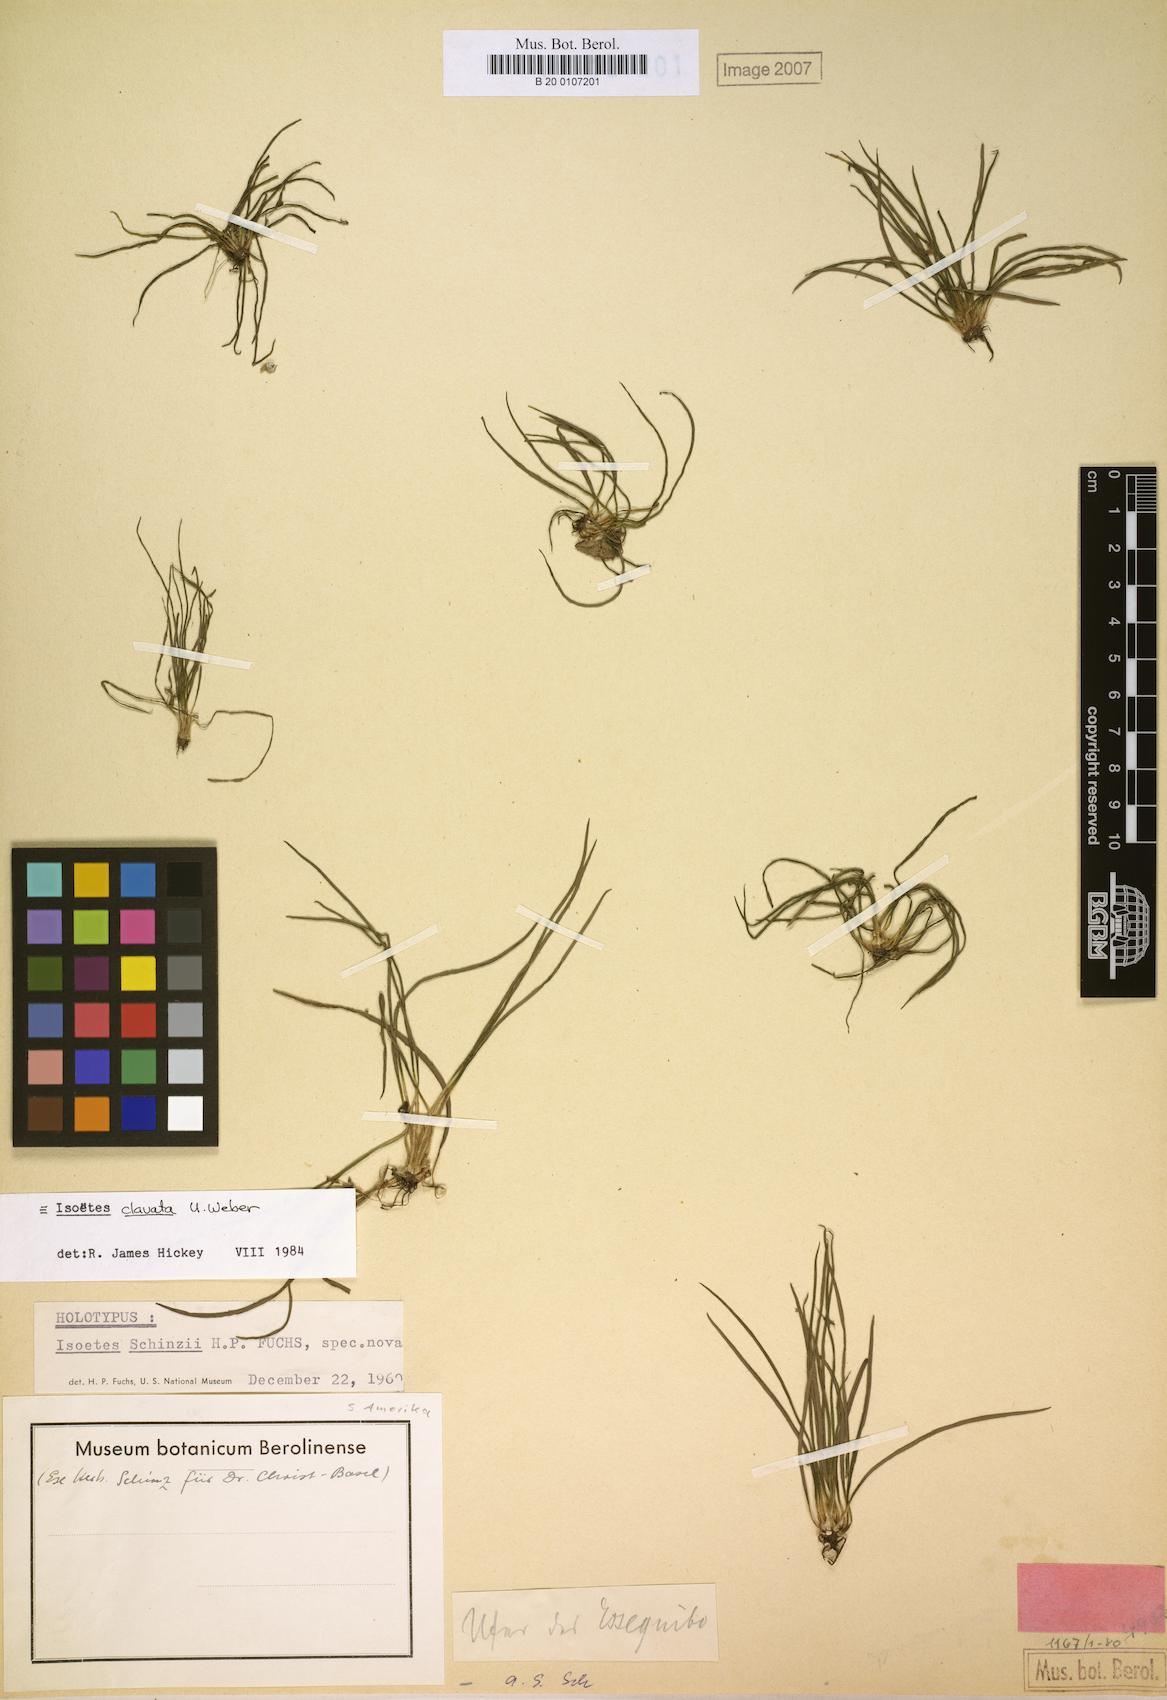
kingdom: Plantae
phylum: Tracheophyta
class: Lycopodiopsida
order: Isoetales
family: Isoetaceae
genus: Isoetes
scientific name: Isoetes ovata
